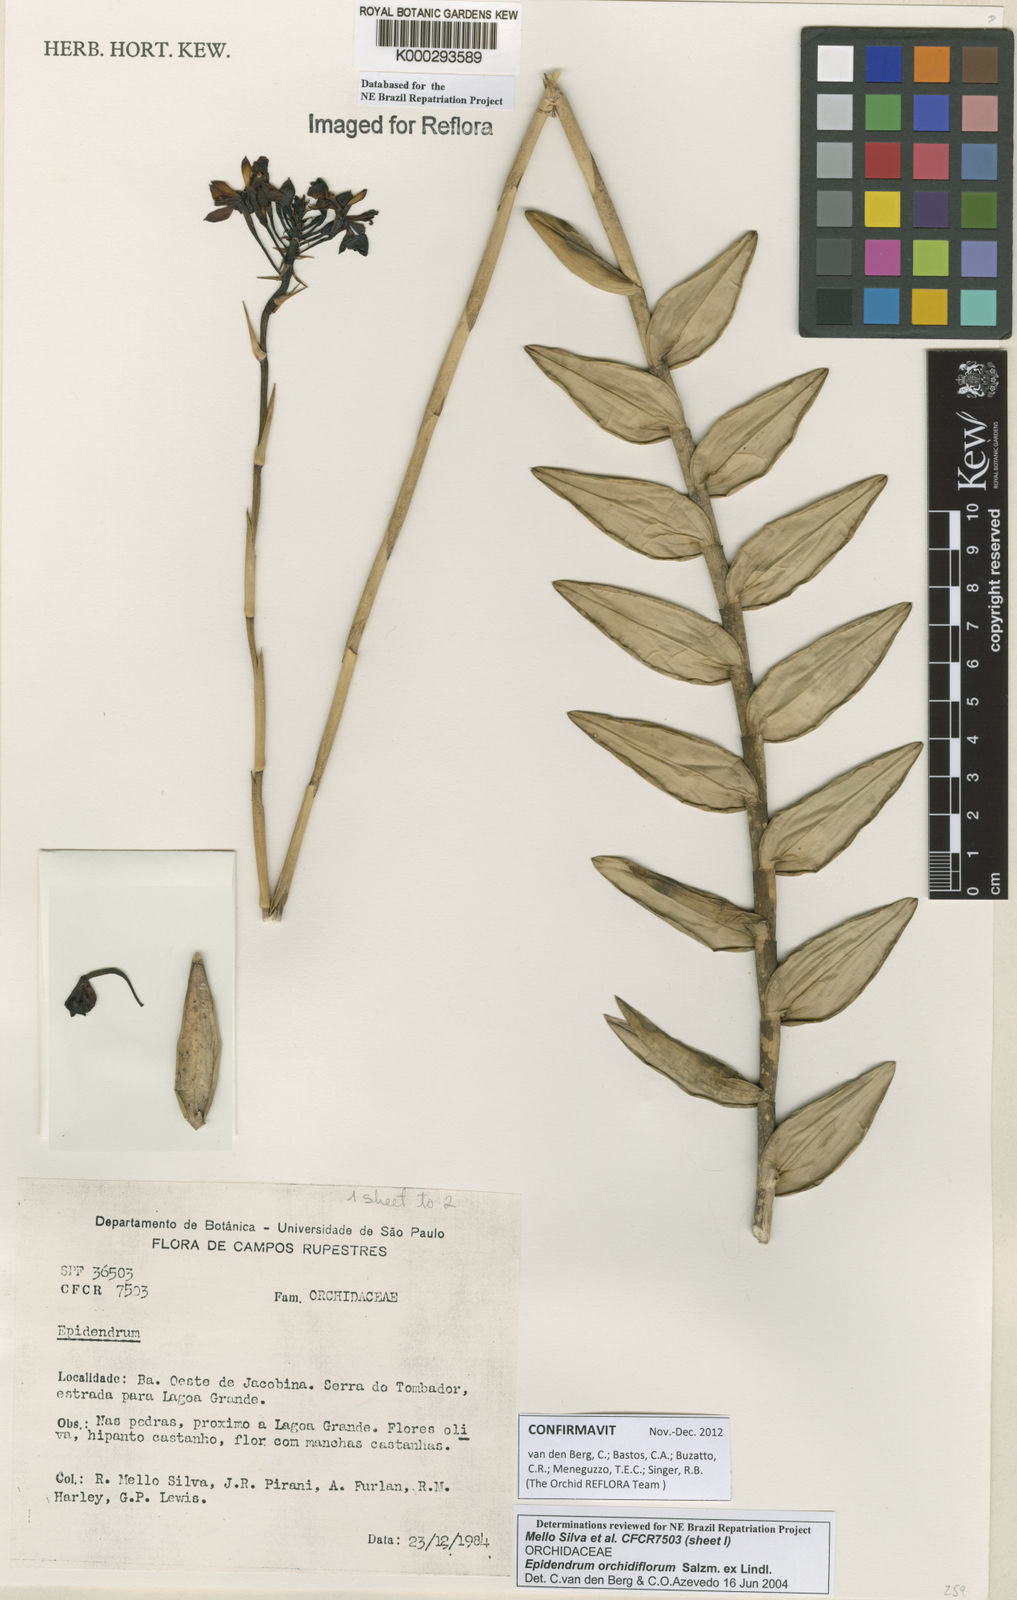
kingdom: Plantae
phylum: Tracheophyta
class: Liliopsida
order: Asparagales
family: Orchidaceae
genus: Epidendrum
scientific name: Epidendrum orchidiflorum
